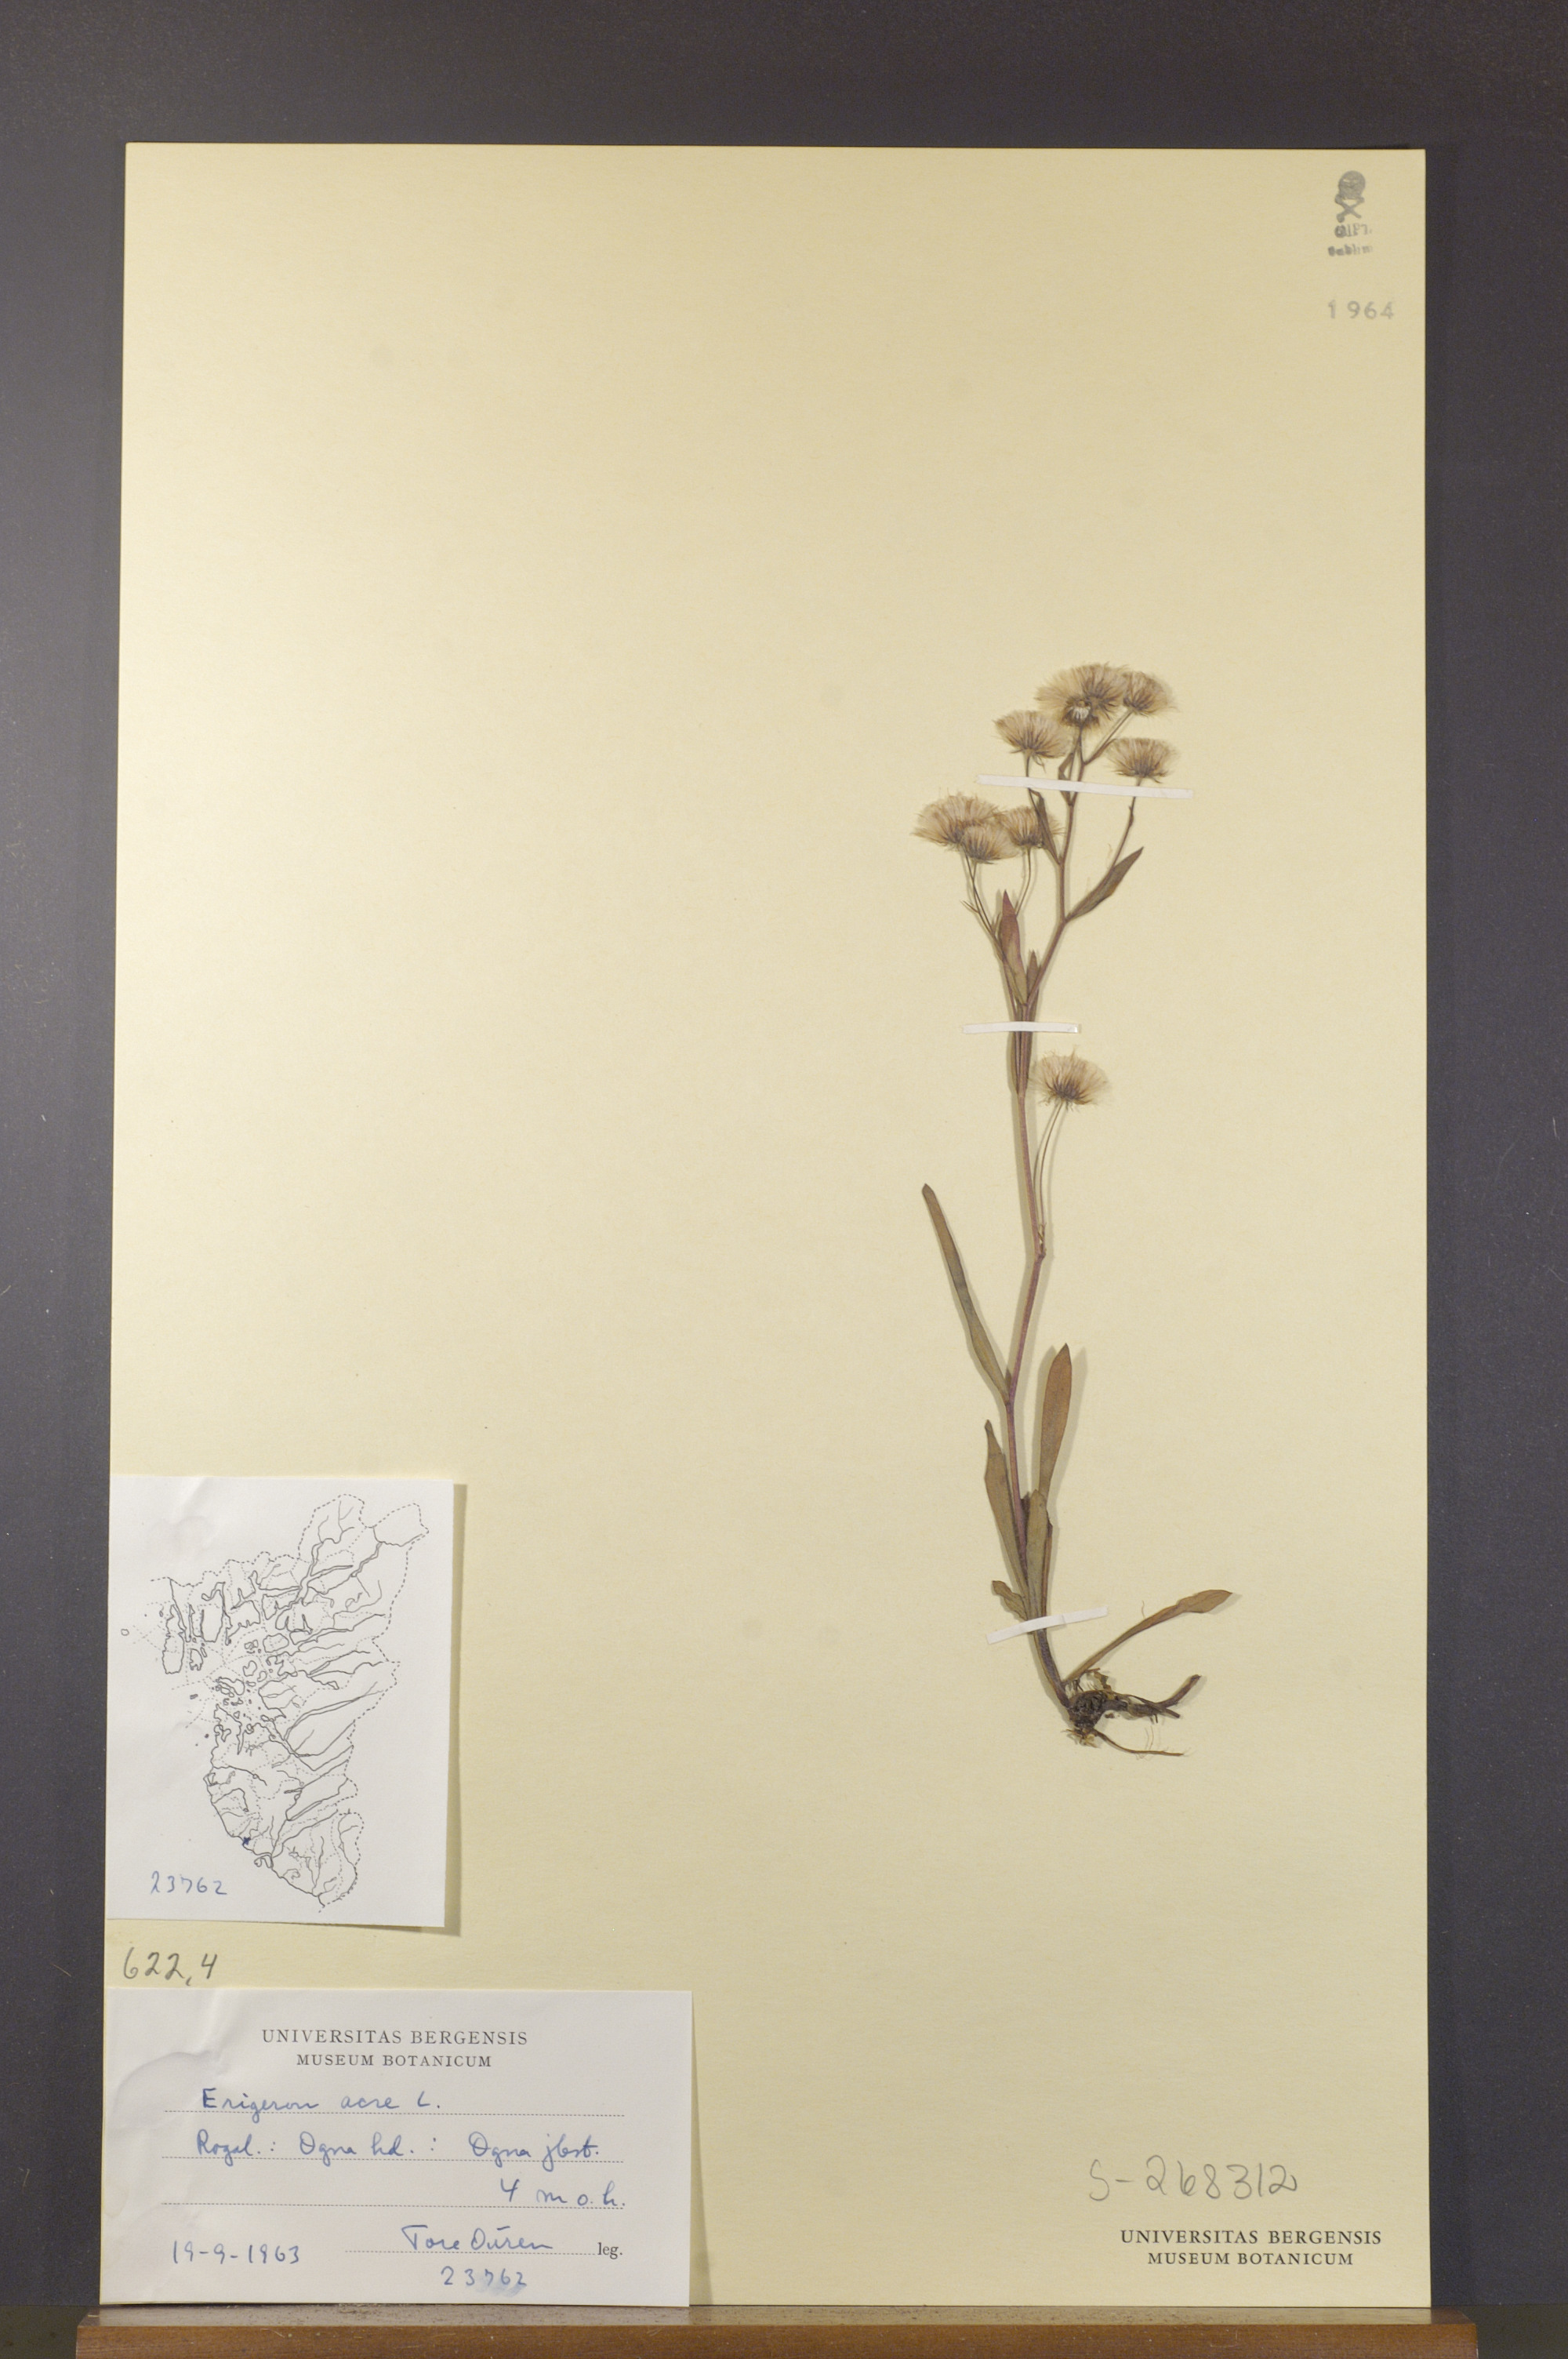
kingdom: Plantae
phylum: Tracheophyta
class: Magnoliopsida
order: Asterales
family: Asteraceae
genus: Erigeron
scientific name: Erigeron acris
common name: Blue fleabane
